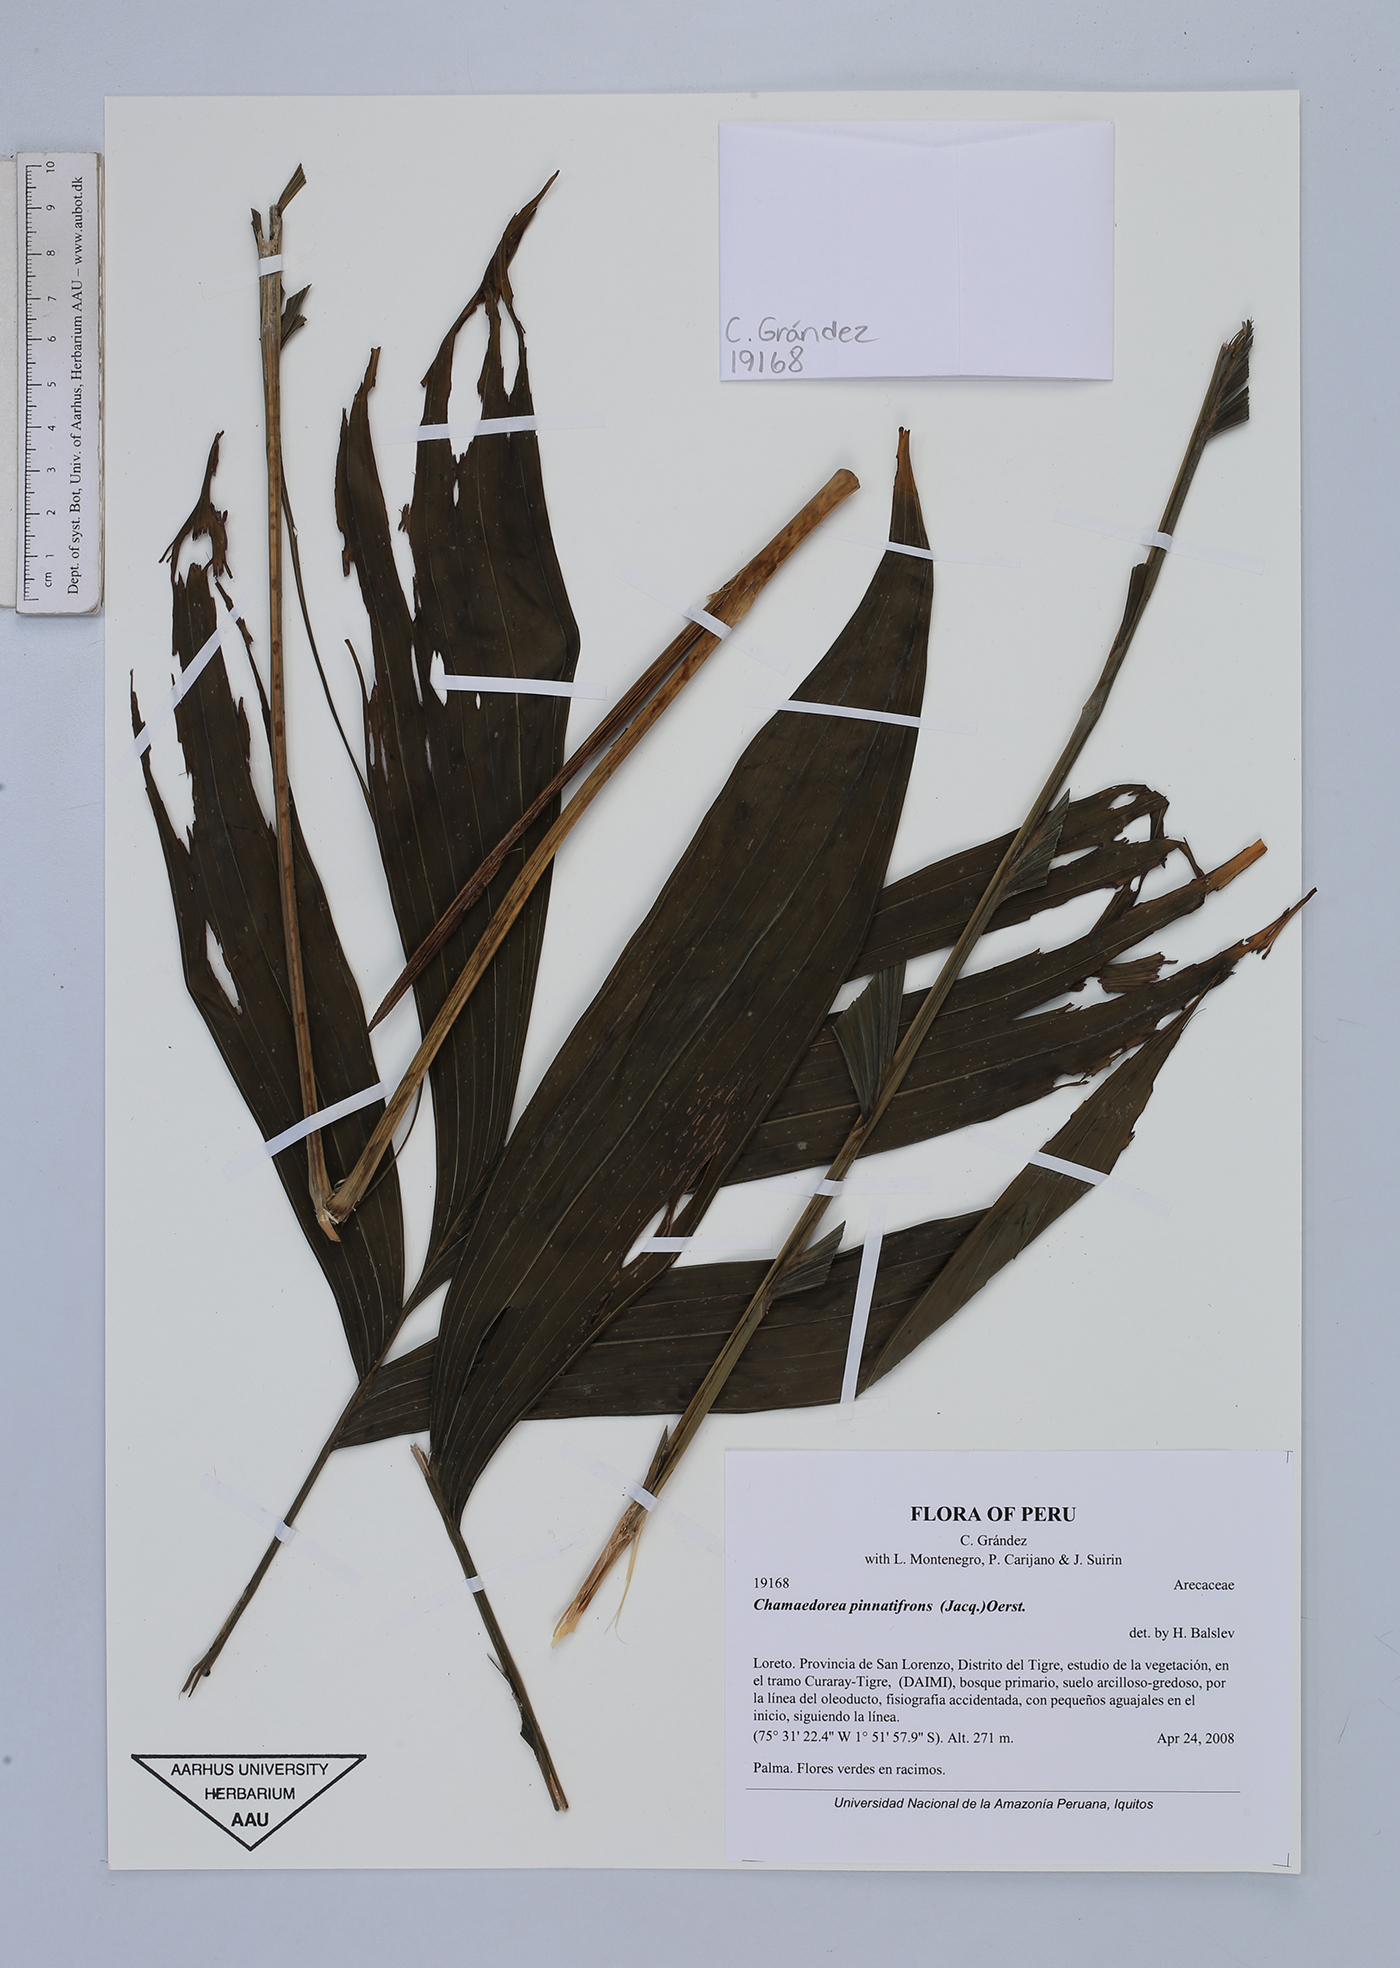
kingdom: Plantae
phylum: Tracheophyta
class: Liliopsida
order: Arecales
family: Arecaceae
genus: Chamaedorea
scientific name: Chamaedorea pinnatifrons
